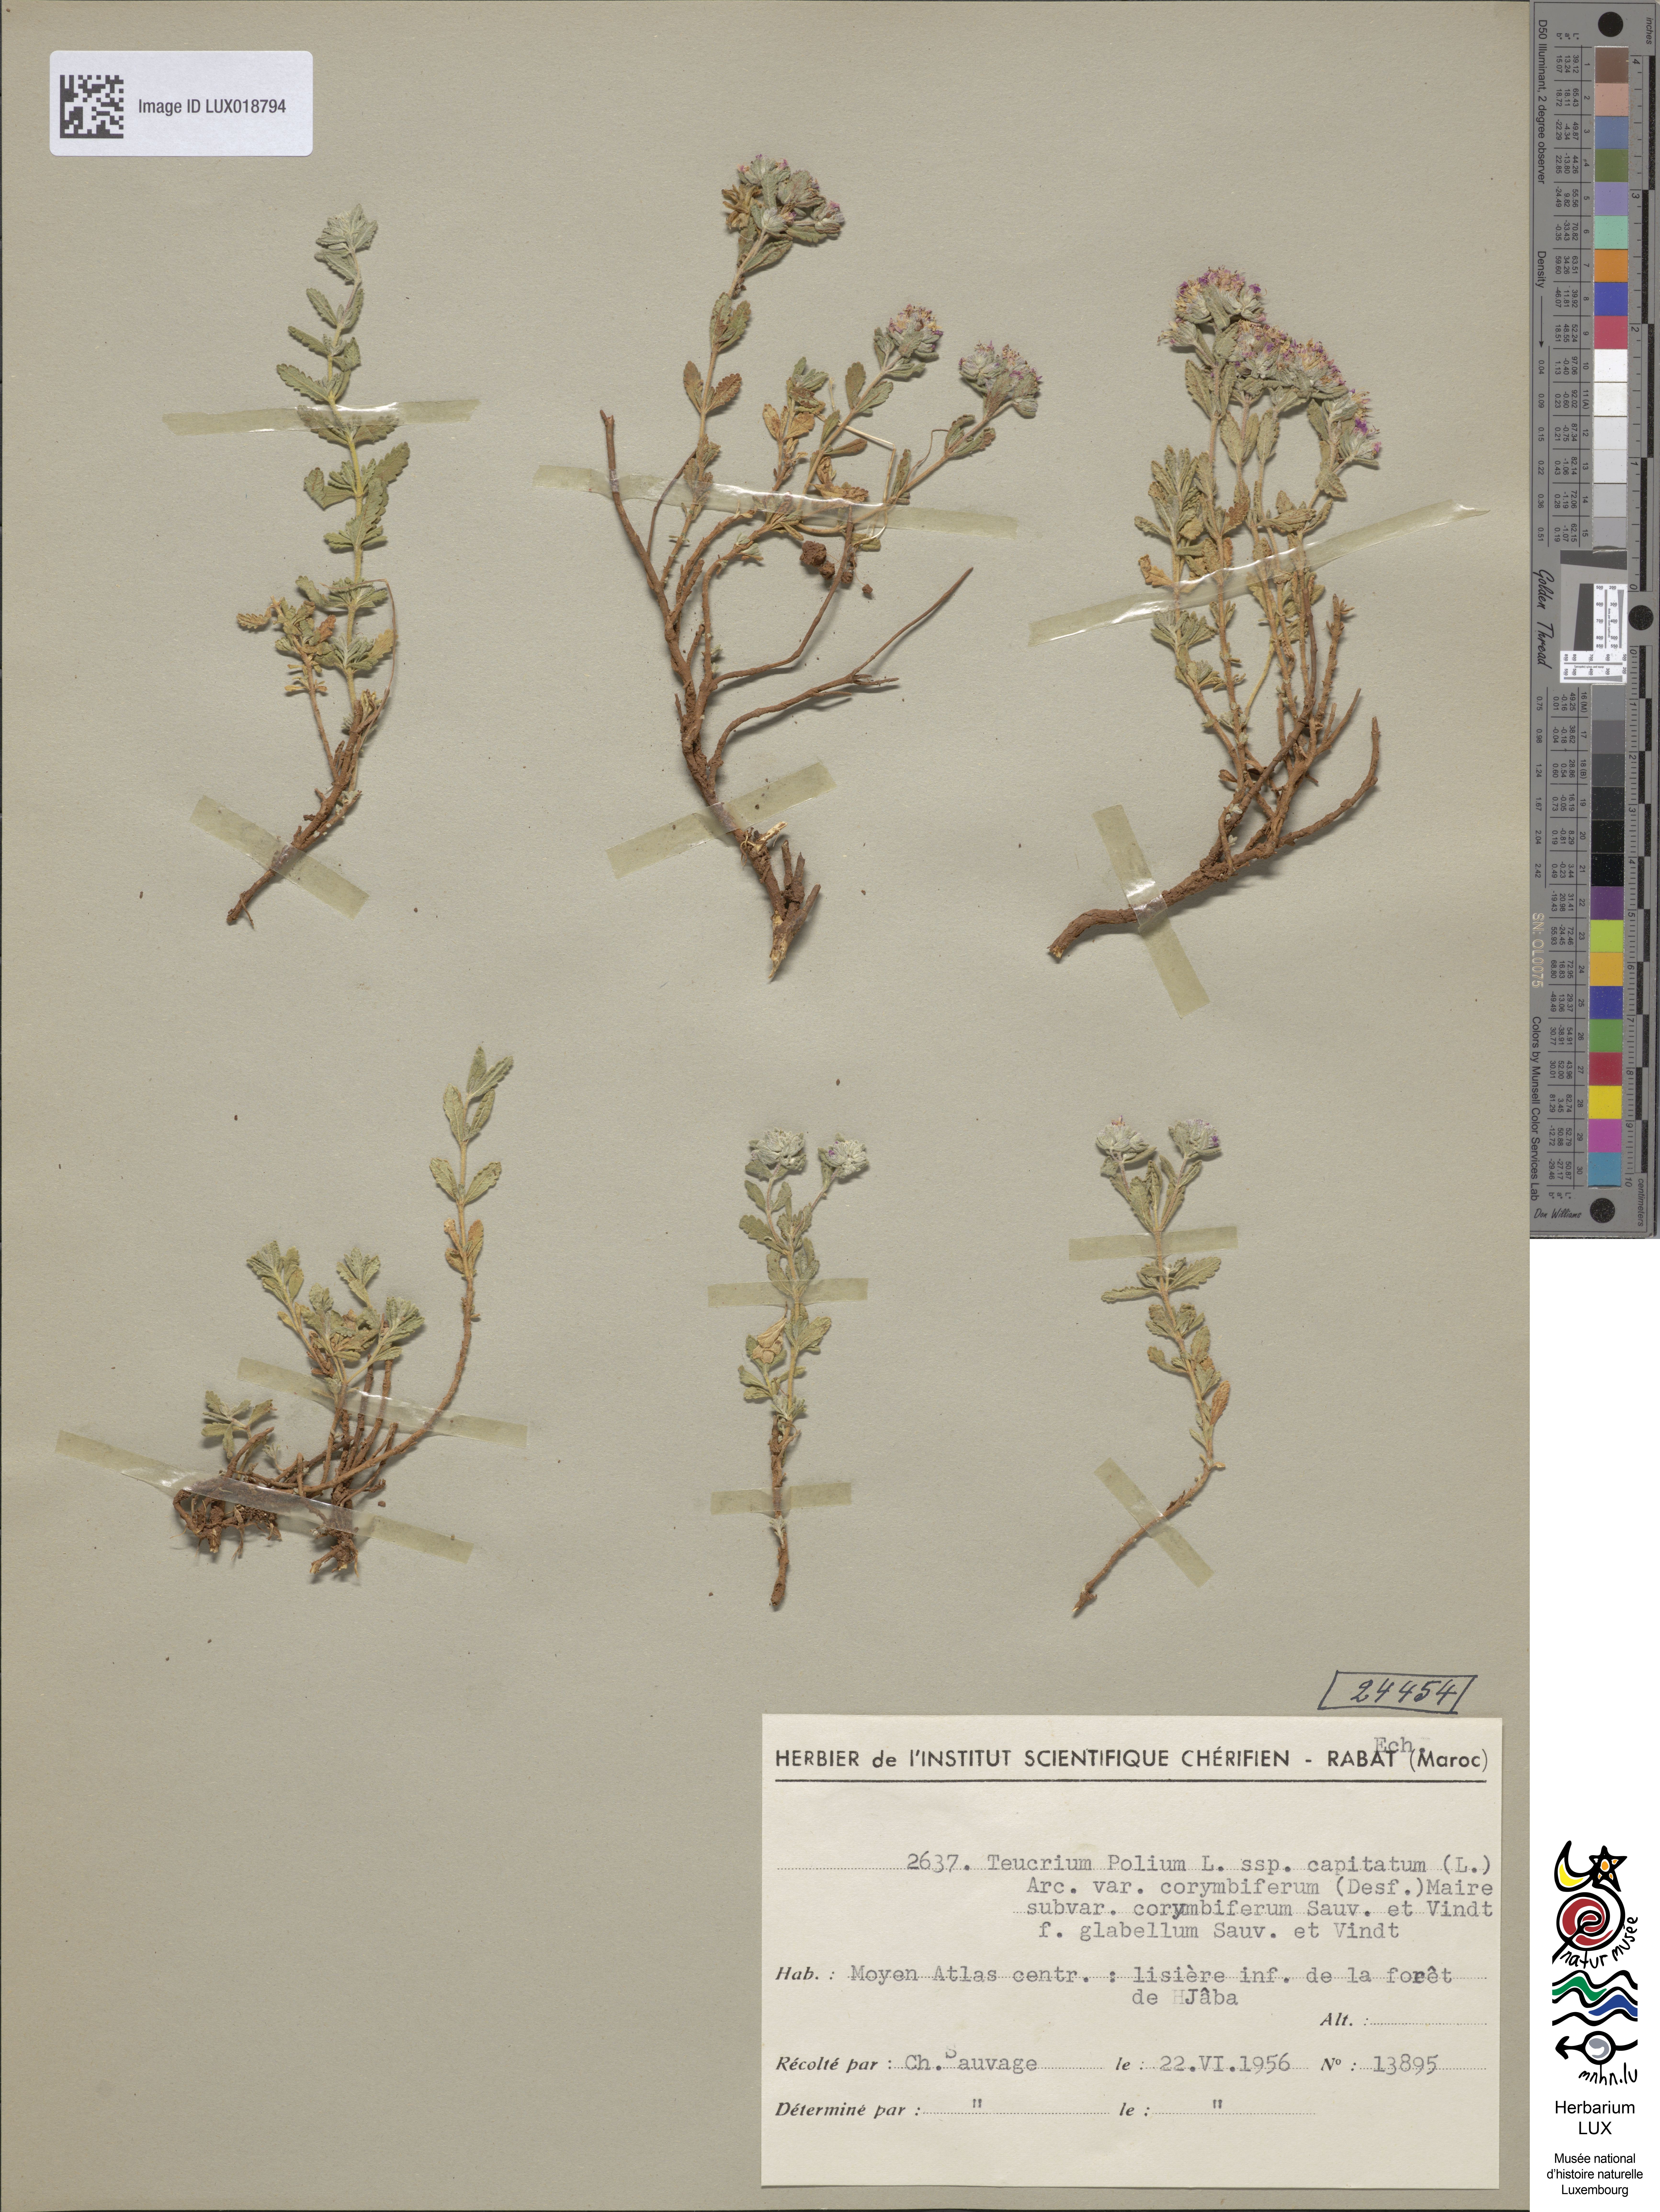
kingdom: Plantae
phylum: Tracheophyta
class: Magnoliopsida
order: Lamiales
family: Lamiaceae
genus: Teucrium
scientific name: Teucrium polium
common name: Poley
